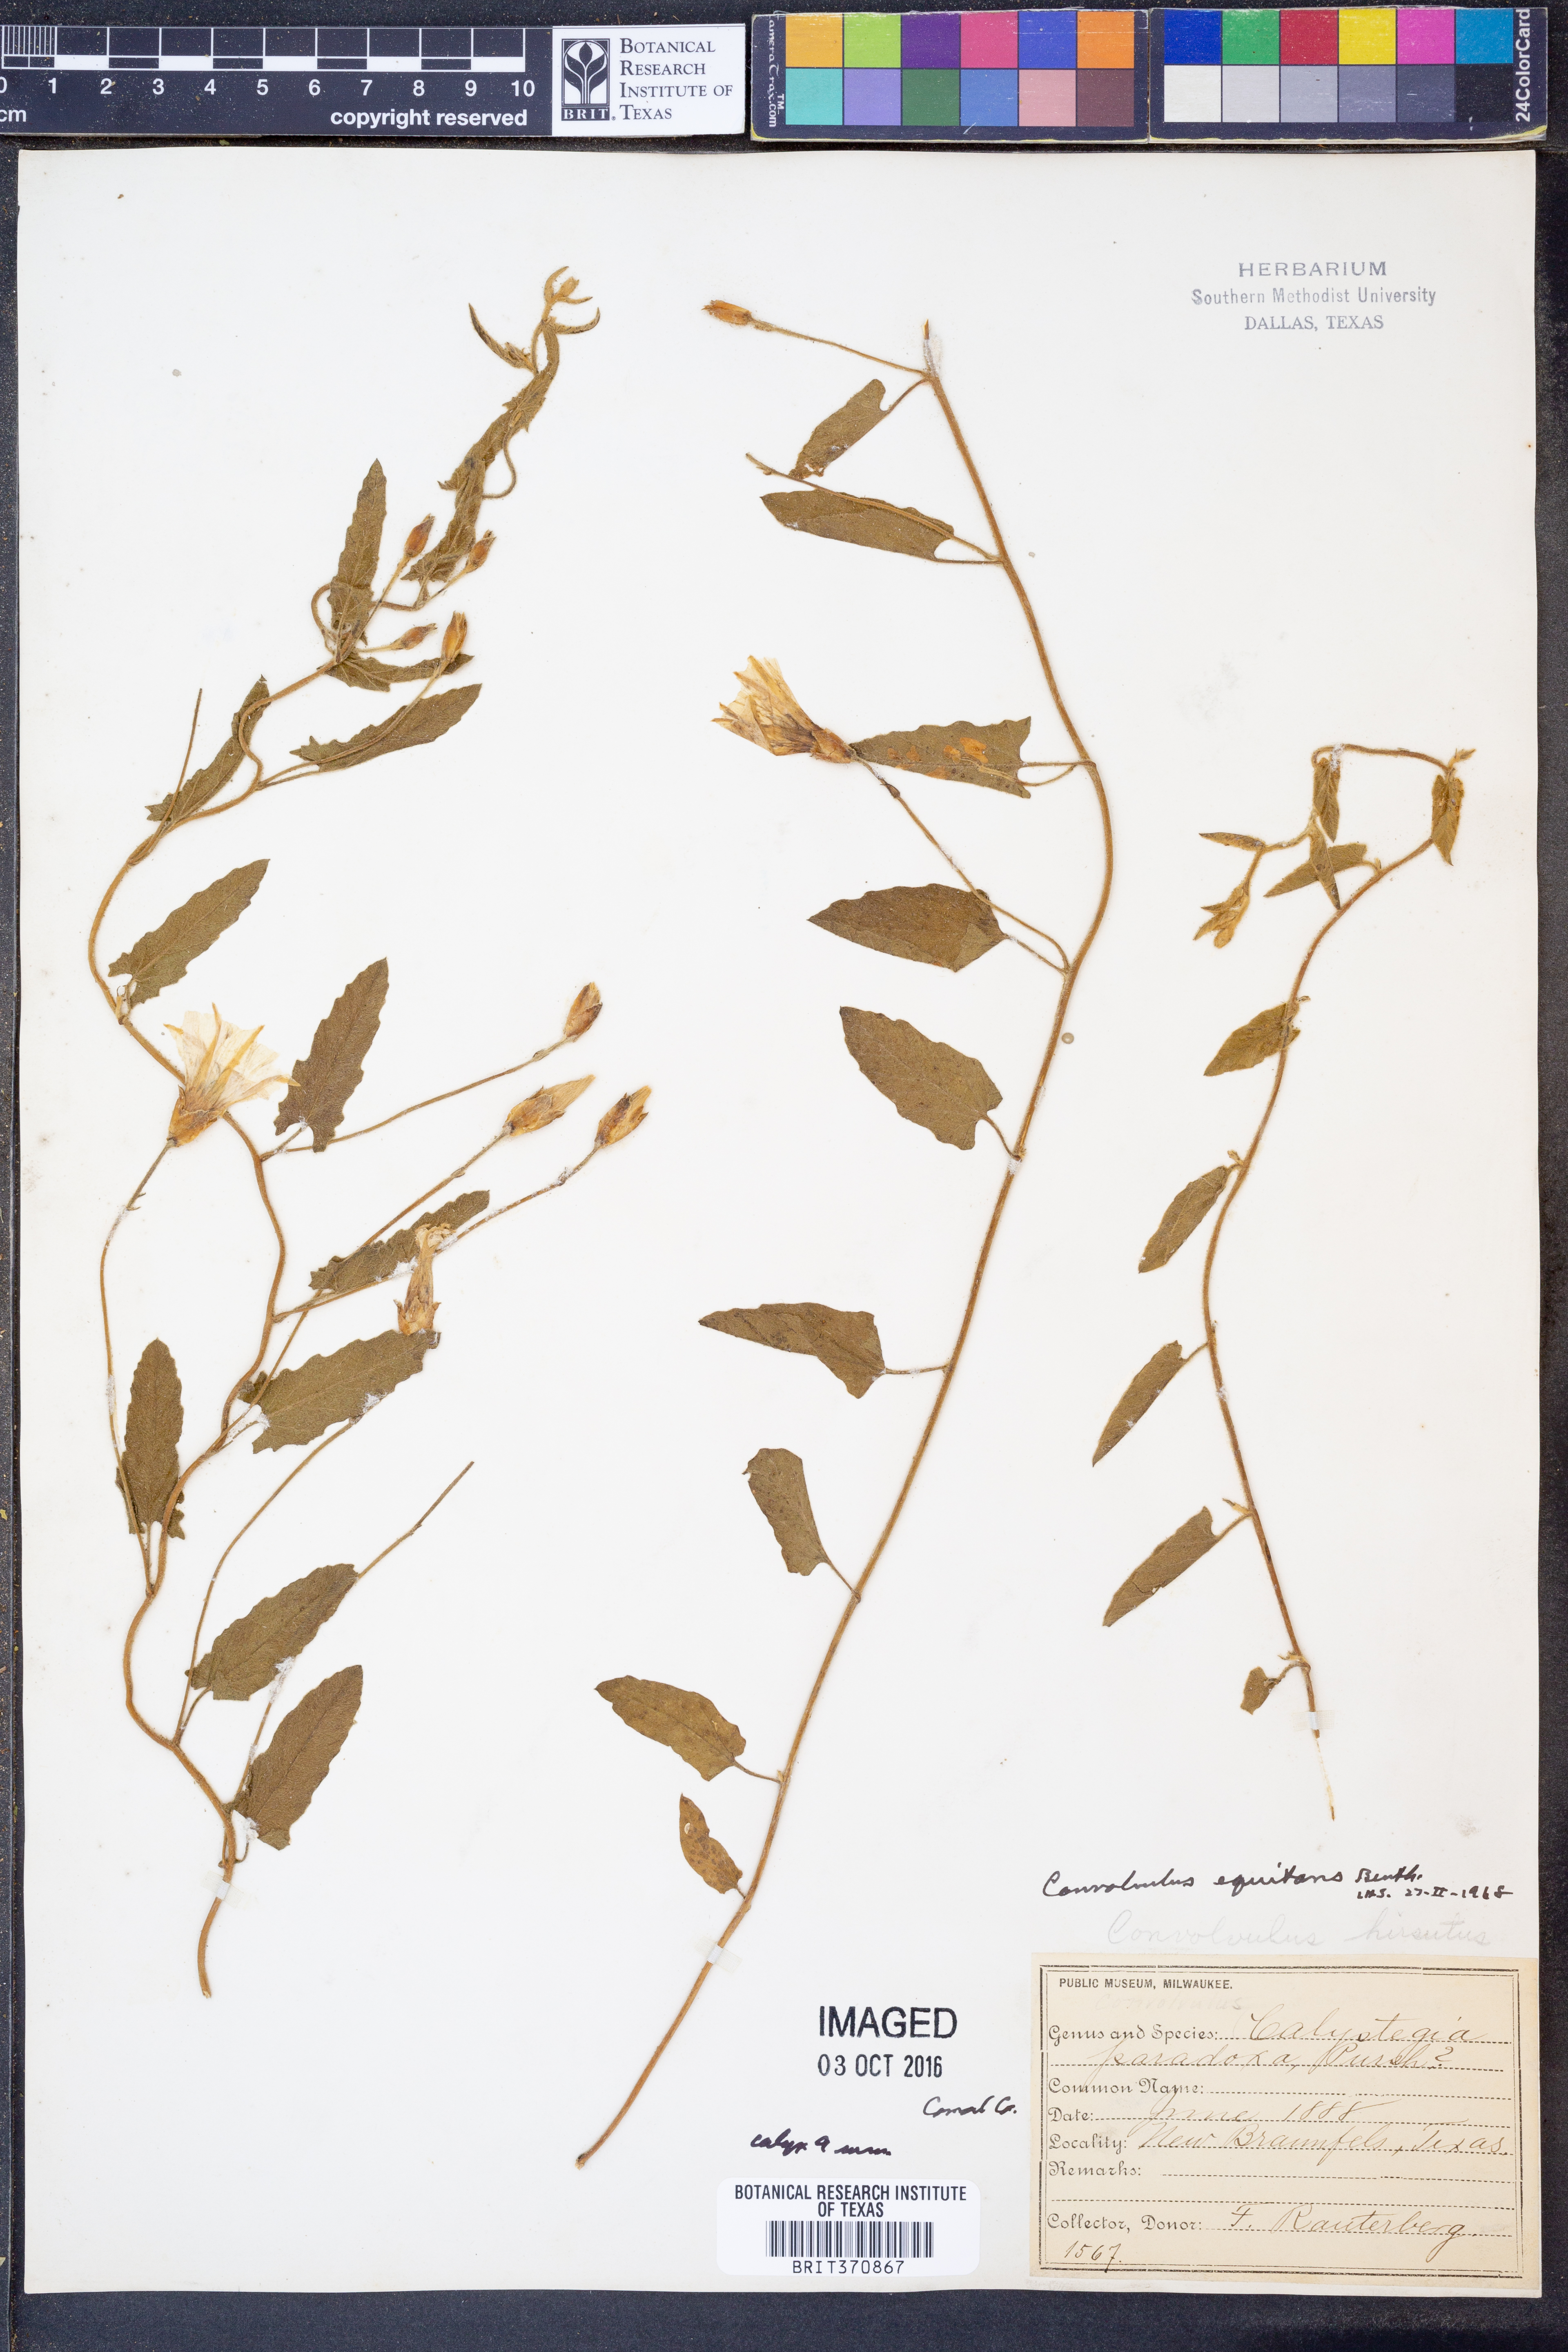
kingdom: Plantae
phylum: Tracheophyta
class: Magnoliopsida
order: Solanales
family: Convolvulaceae
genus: Convolvulus
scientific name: Convolvulus equitans
